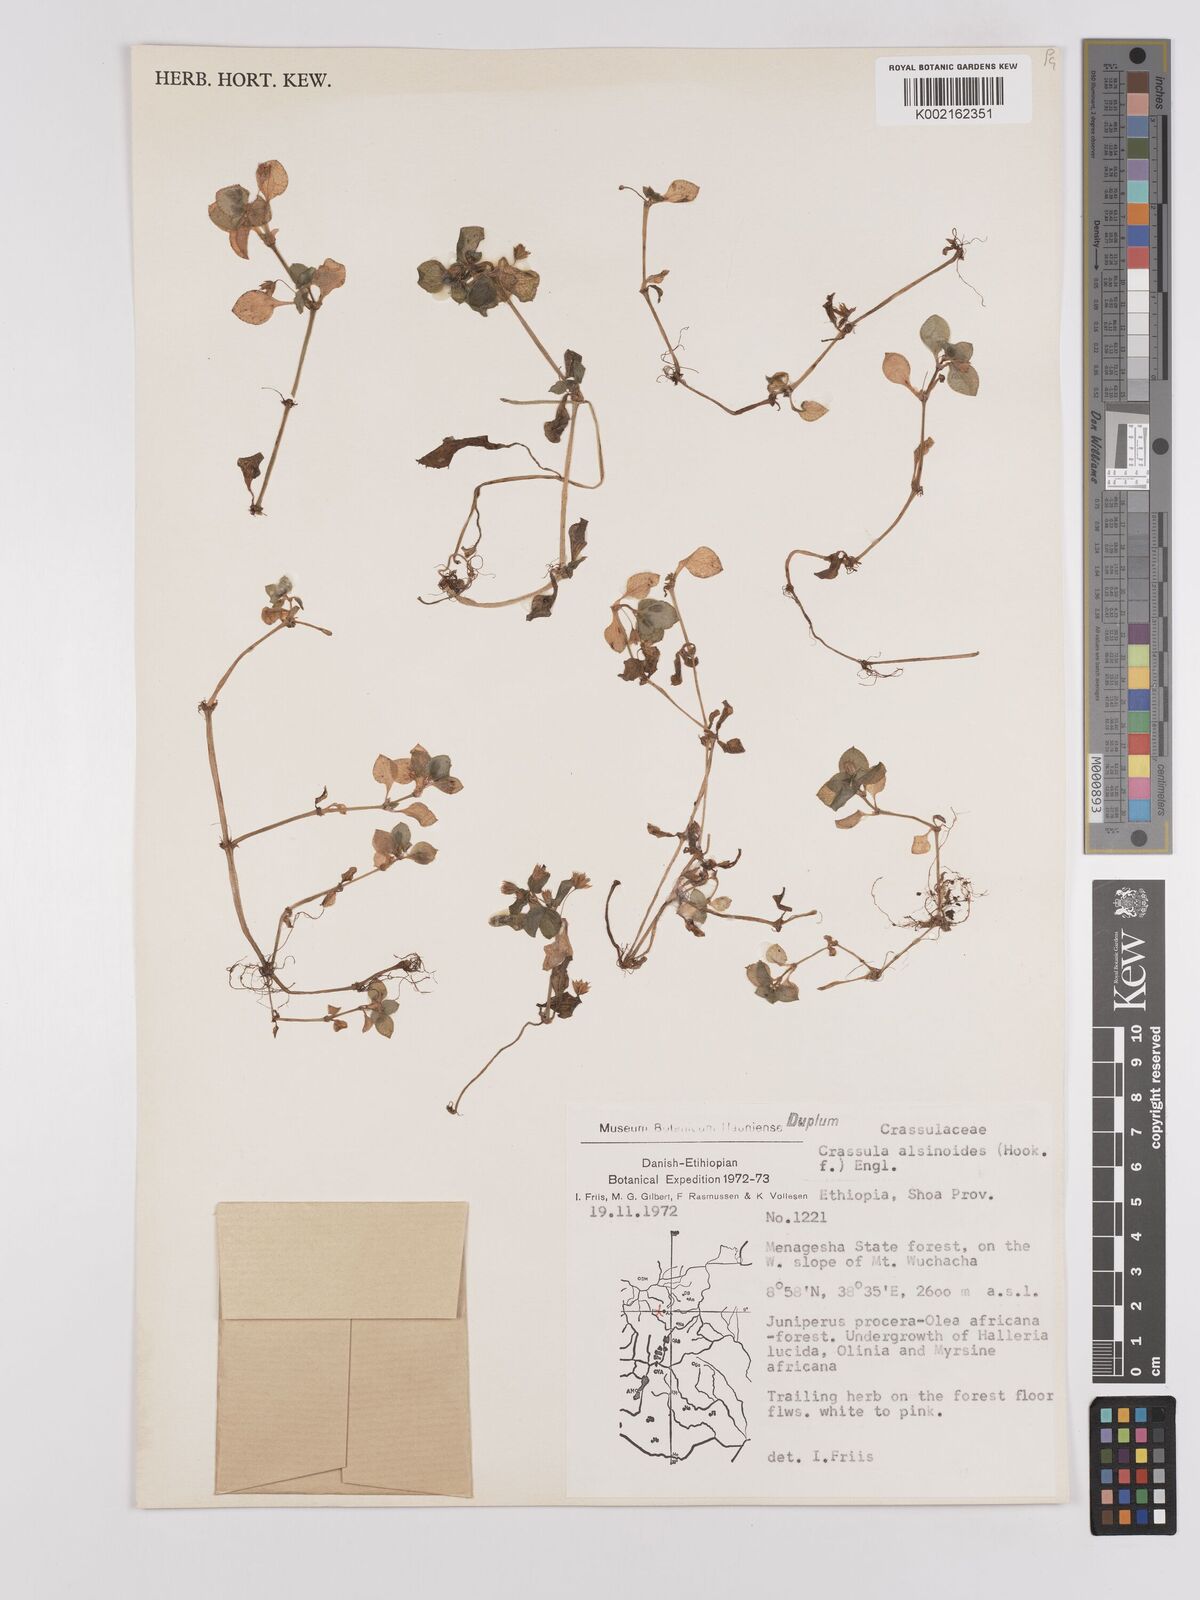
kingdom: Plantae
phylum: Tracheophyta
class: Magnoliopsida
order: Saxifragales
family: Crassulaceae
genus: Crassula
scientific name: Crassula alsinoides
